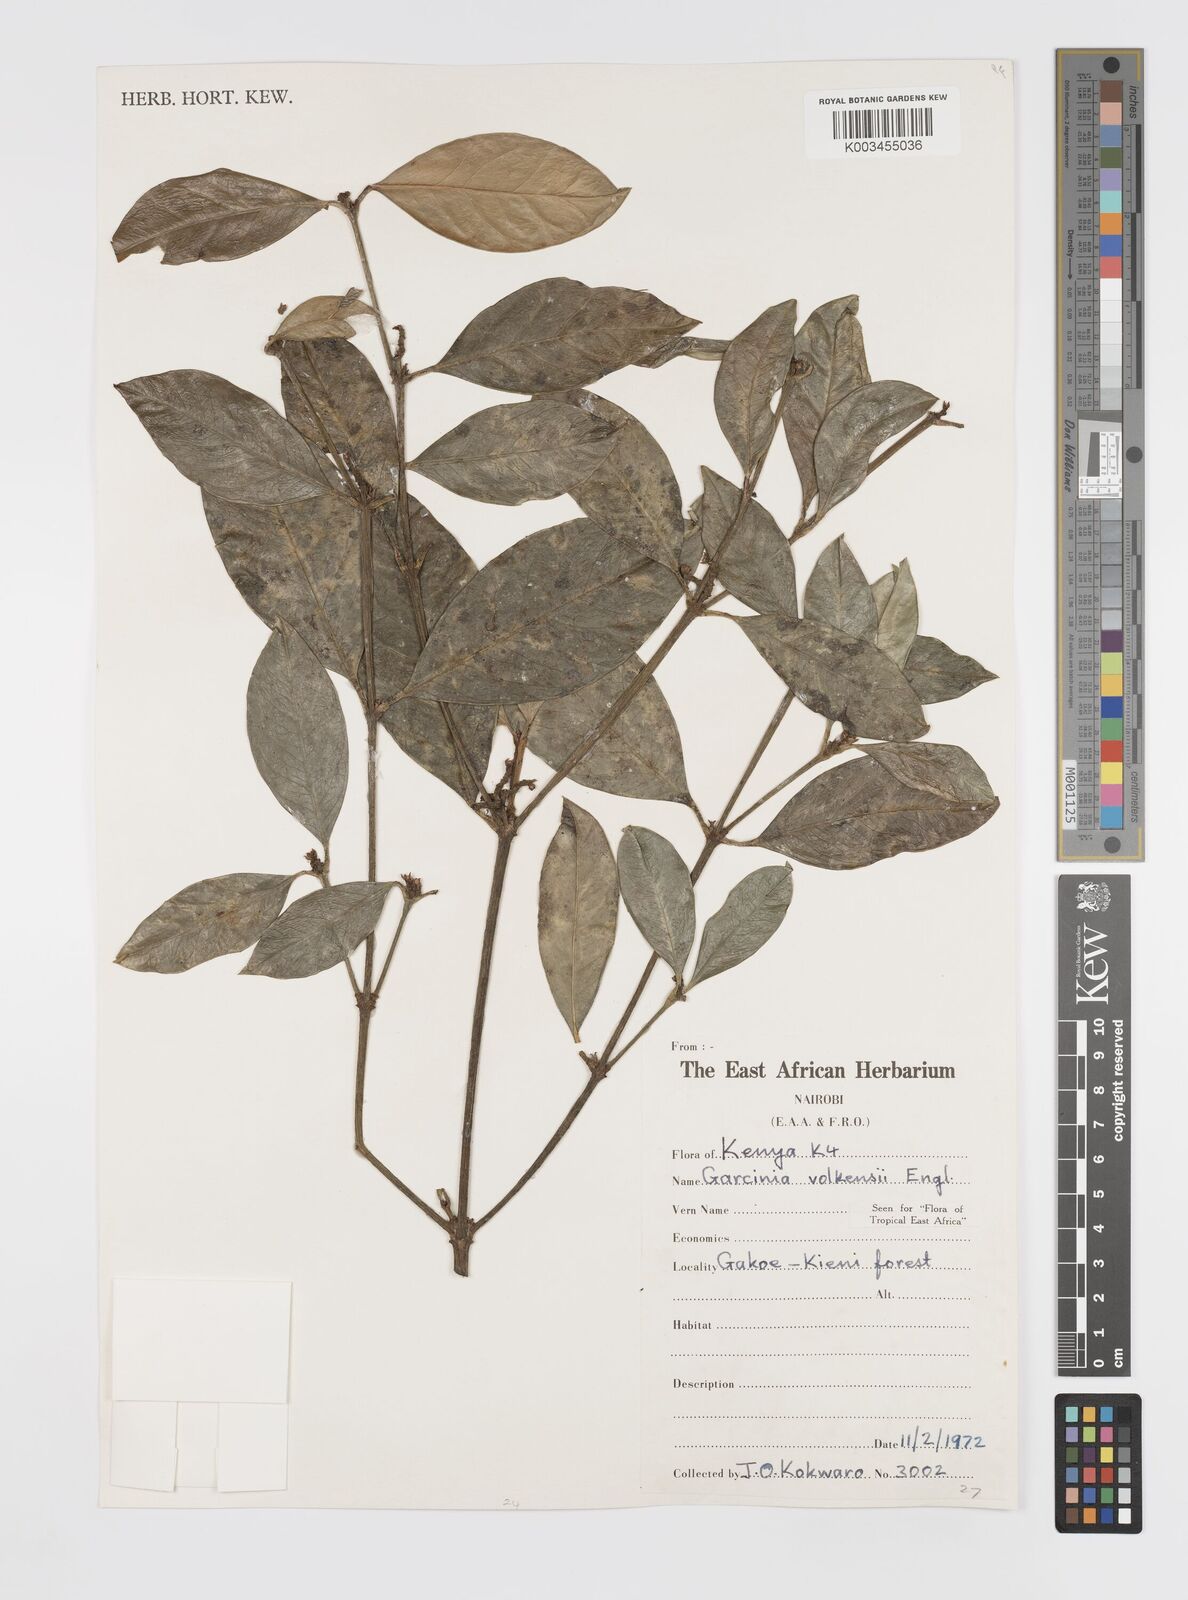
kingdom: Plantae
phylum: Tracheophyta
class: Magnoliopsida
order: Malpighiales
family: Clusiaceae
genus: Garcinia
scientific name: Garcinia volkensii
